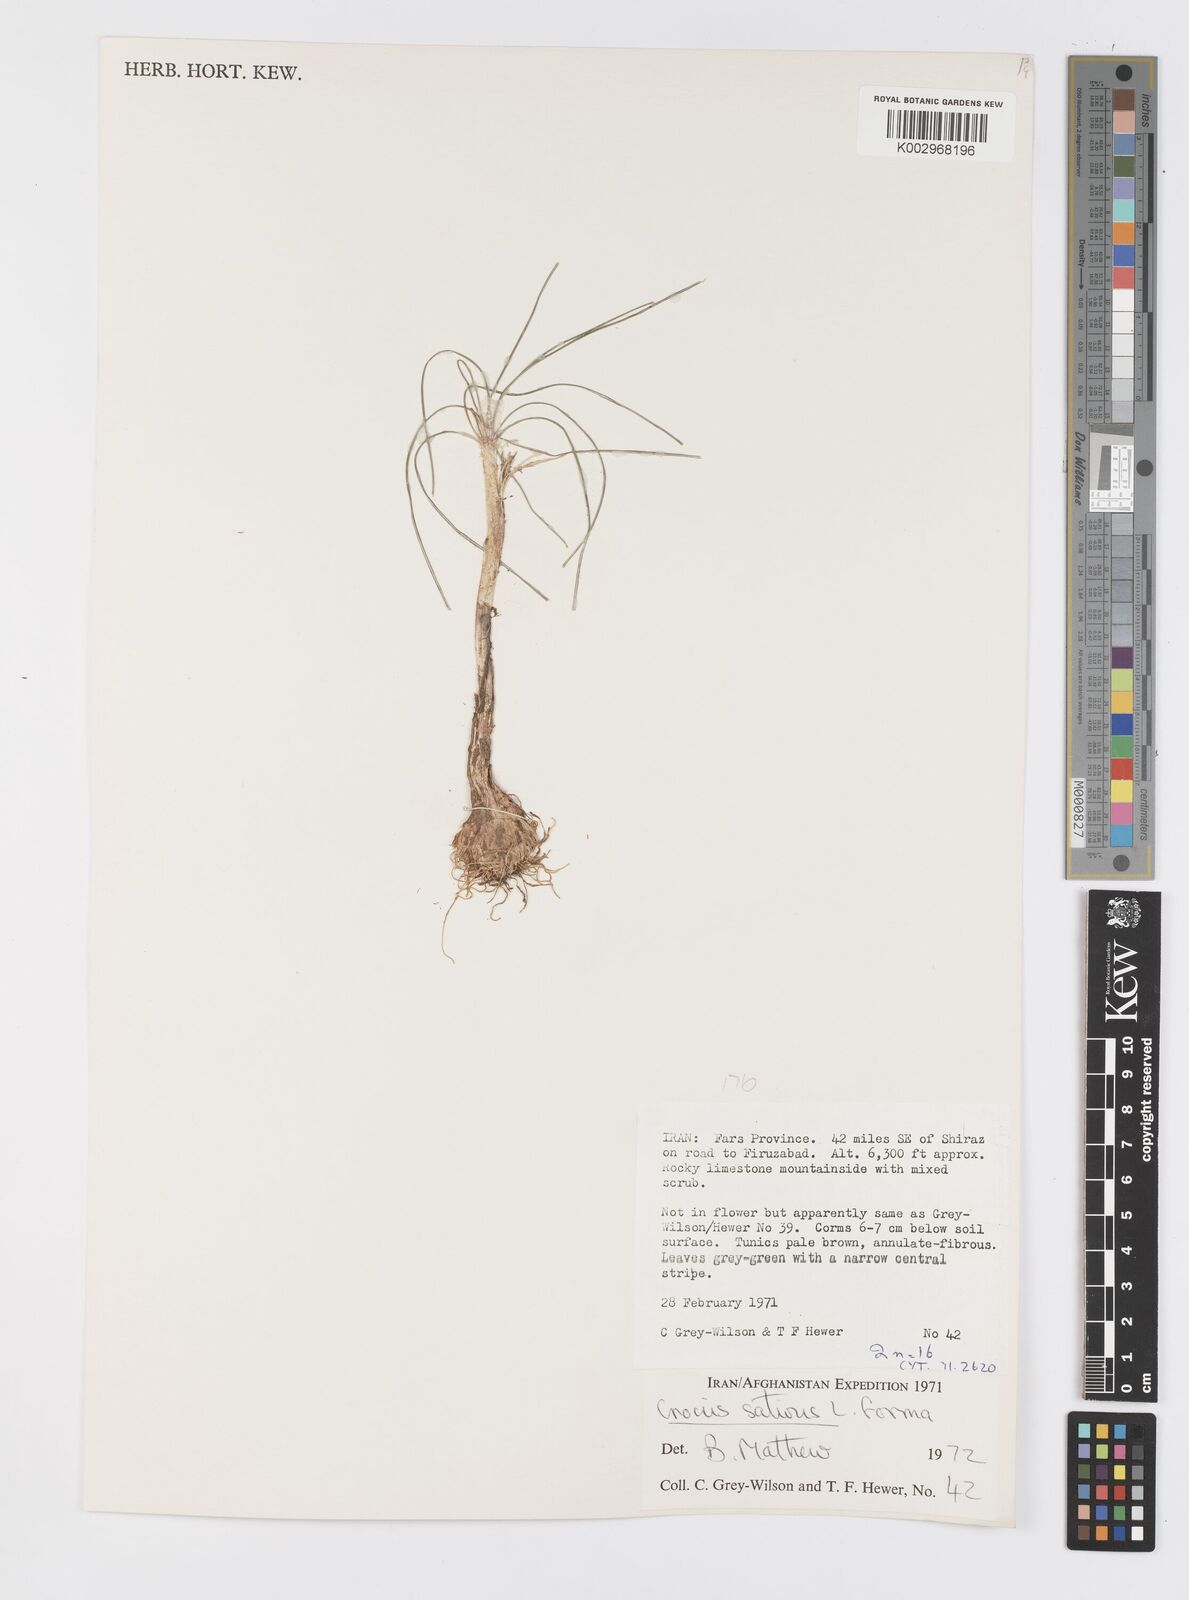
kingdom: Plantae
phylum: Tracheophyta
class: Liliopsida
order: Asparagales
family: Iridaceae
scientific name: Iridaceae
